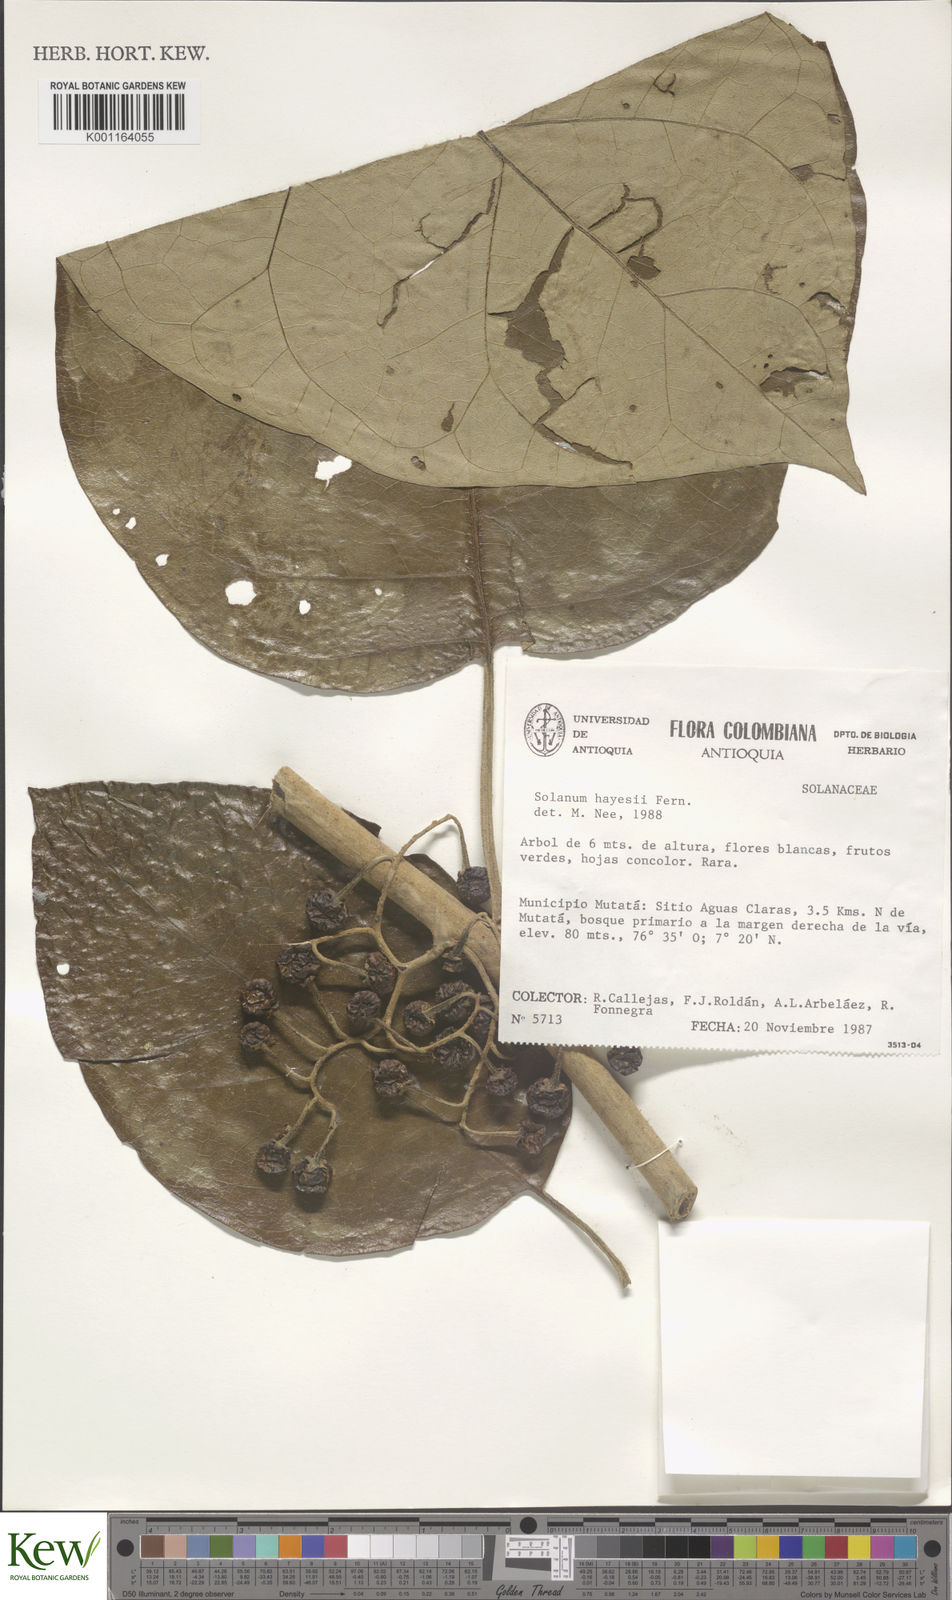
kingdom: Plantae
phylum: Tracheophyta
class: Magnoliopsida
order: Solanales
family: Solanaceae
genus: Solanum
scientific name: Solanum hayesii
